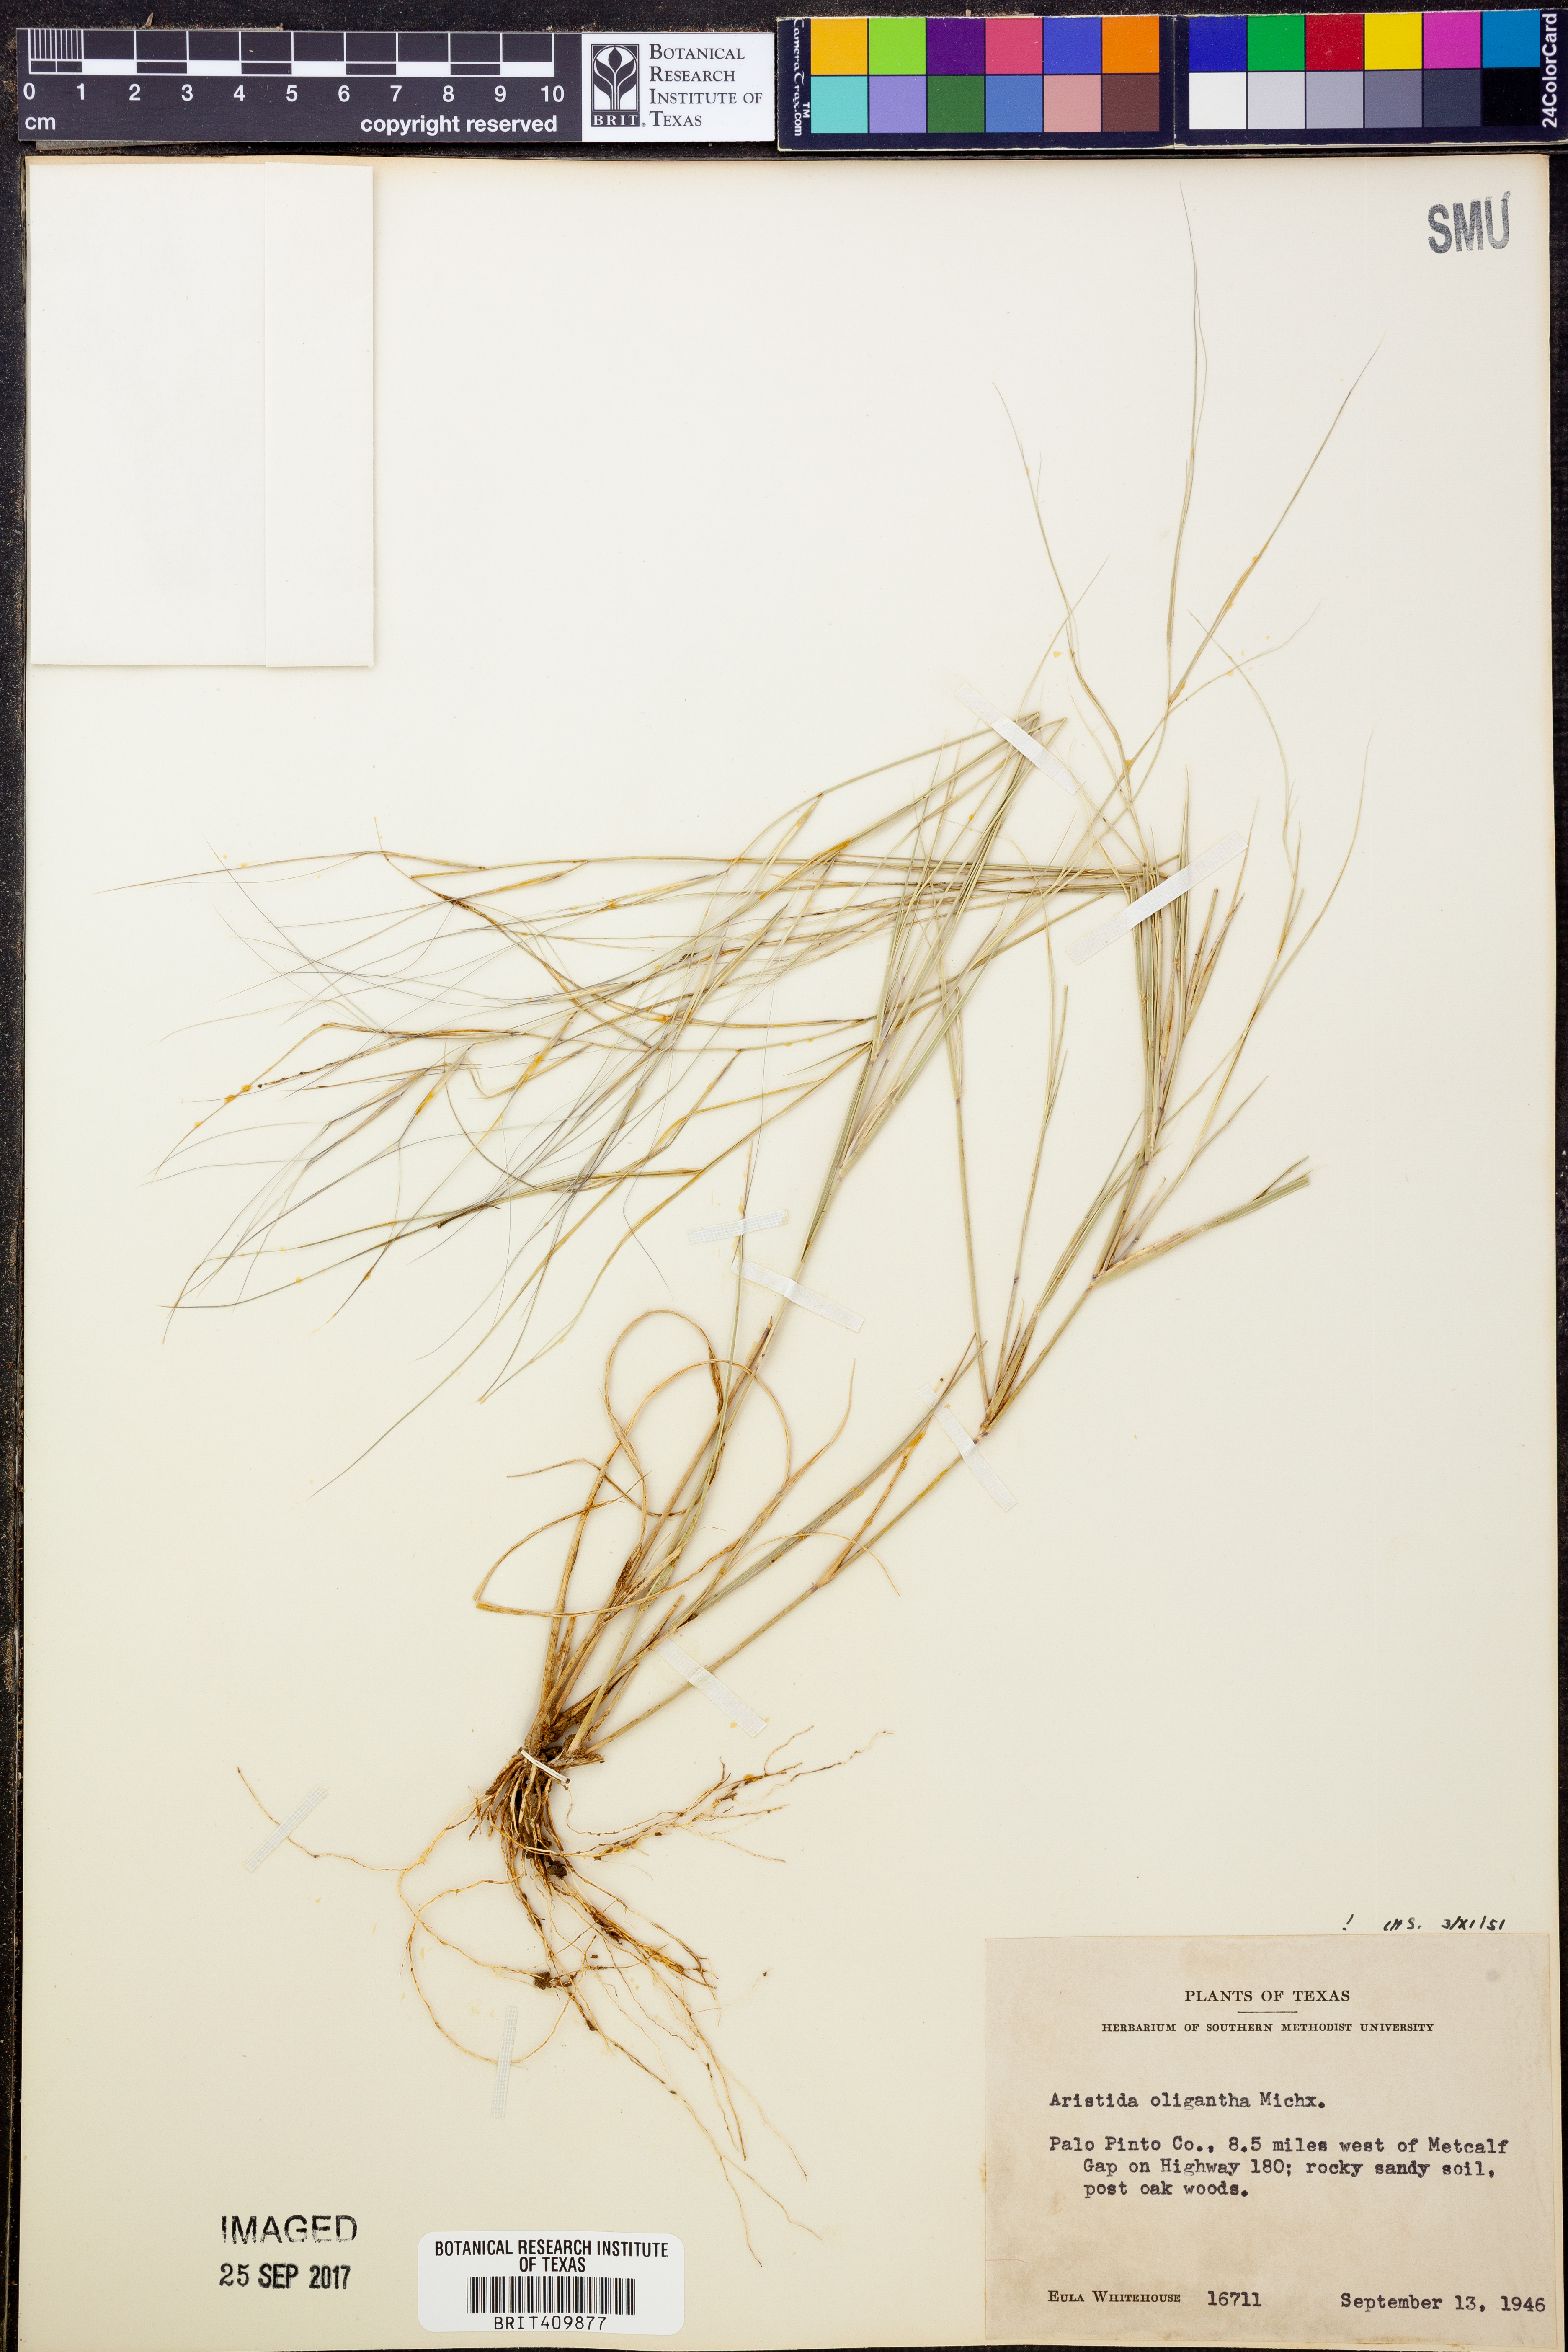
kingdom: Plantae
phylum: Tracheophyta
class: Liliopsida
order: Poales
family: Poaceae
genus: Aristida
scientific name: Aristida oligantha
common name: Few-flowered aristida
